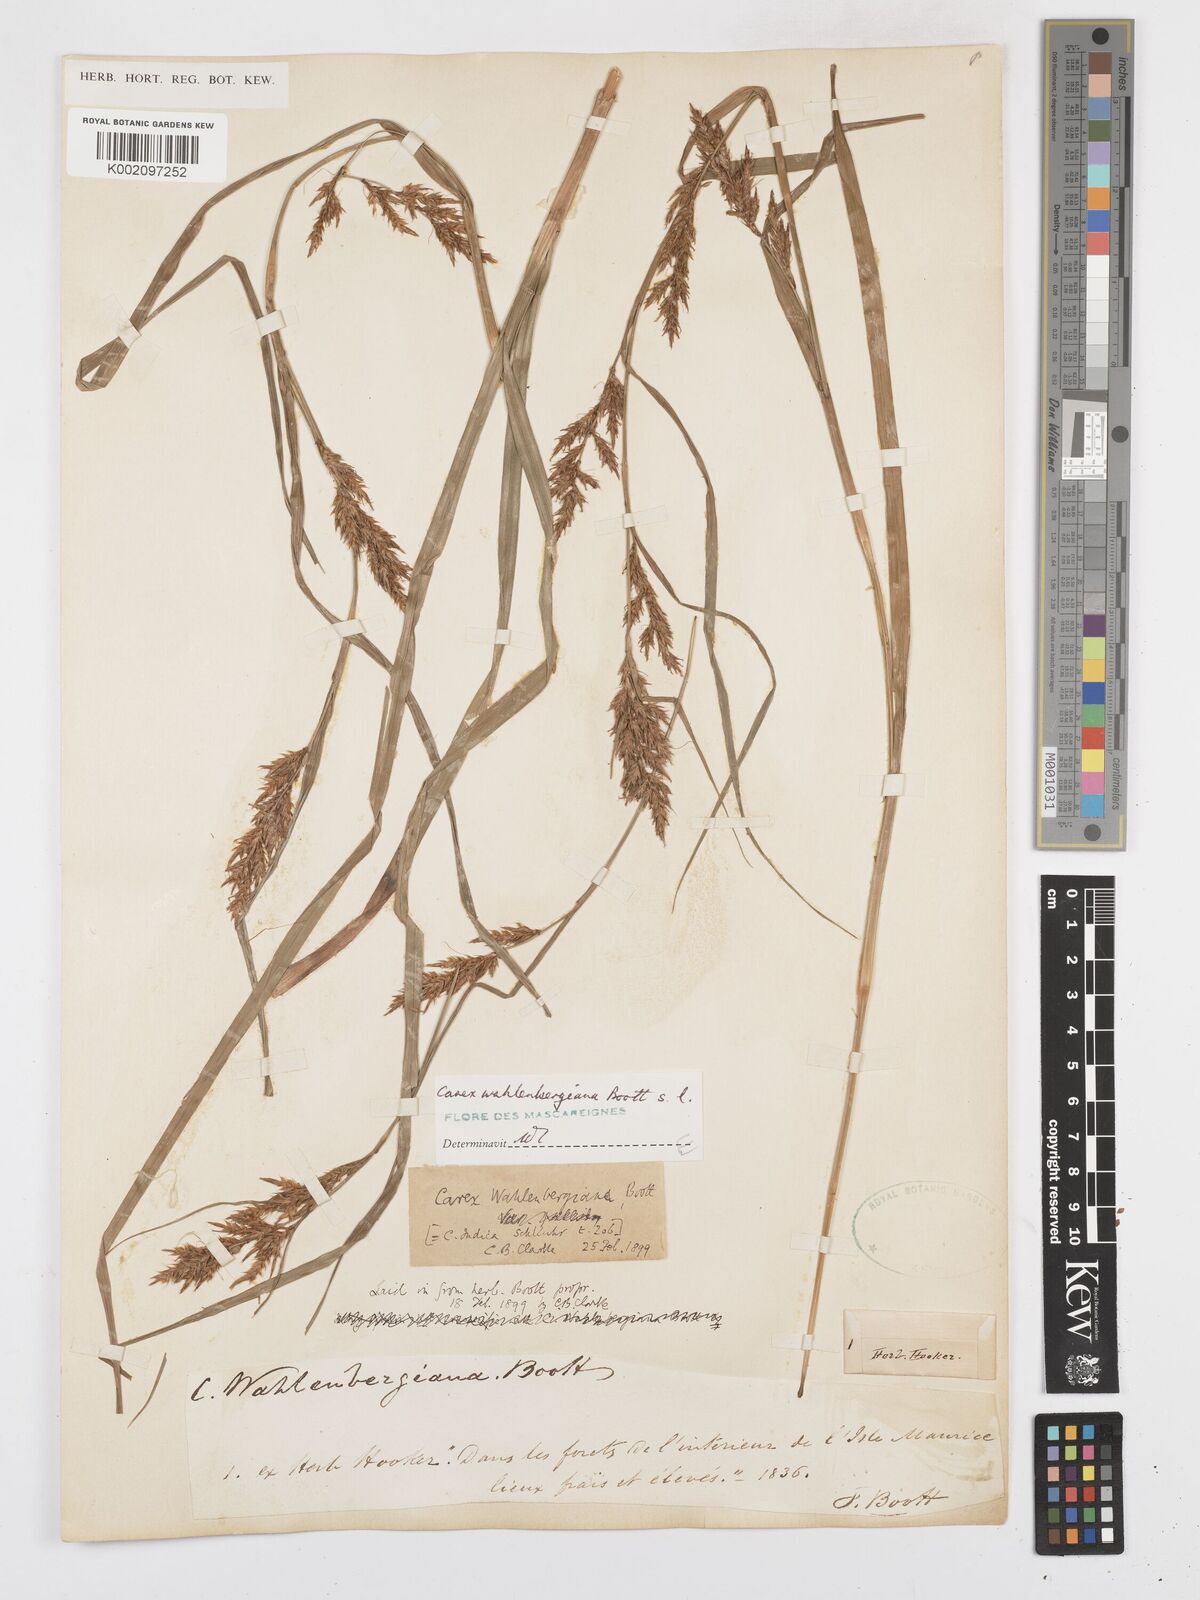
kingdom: Plantae
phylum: Tracheophyta
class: Liliopsida
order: Poales
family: Cyperaceae
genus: Carex
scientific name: Carex wahlenbergiana
